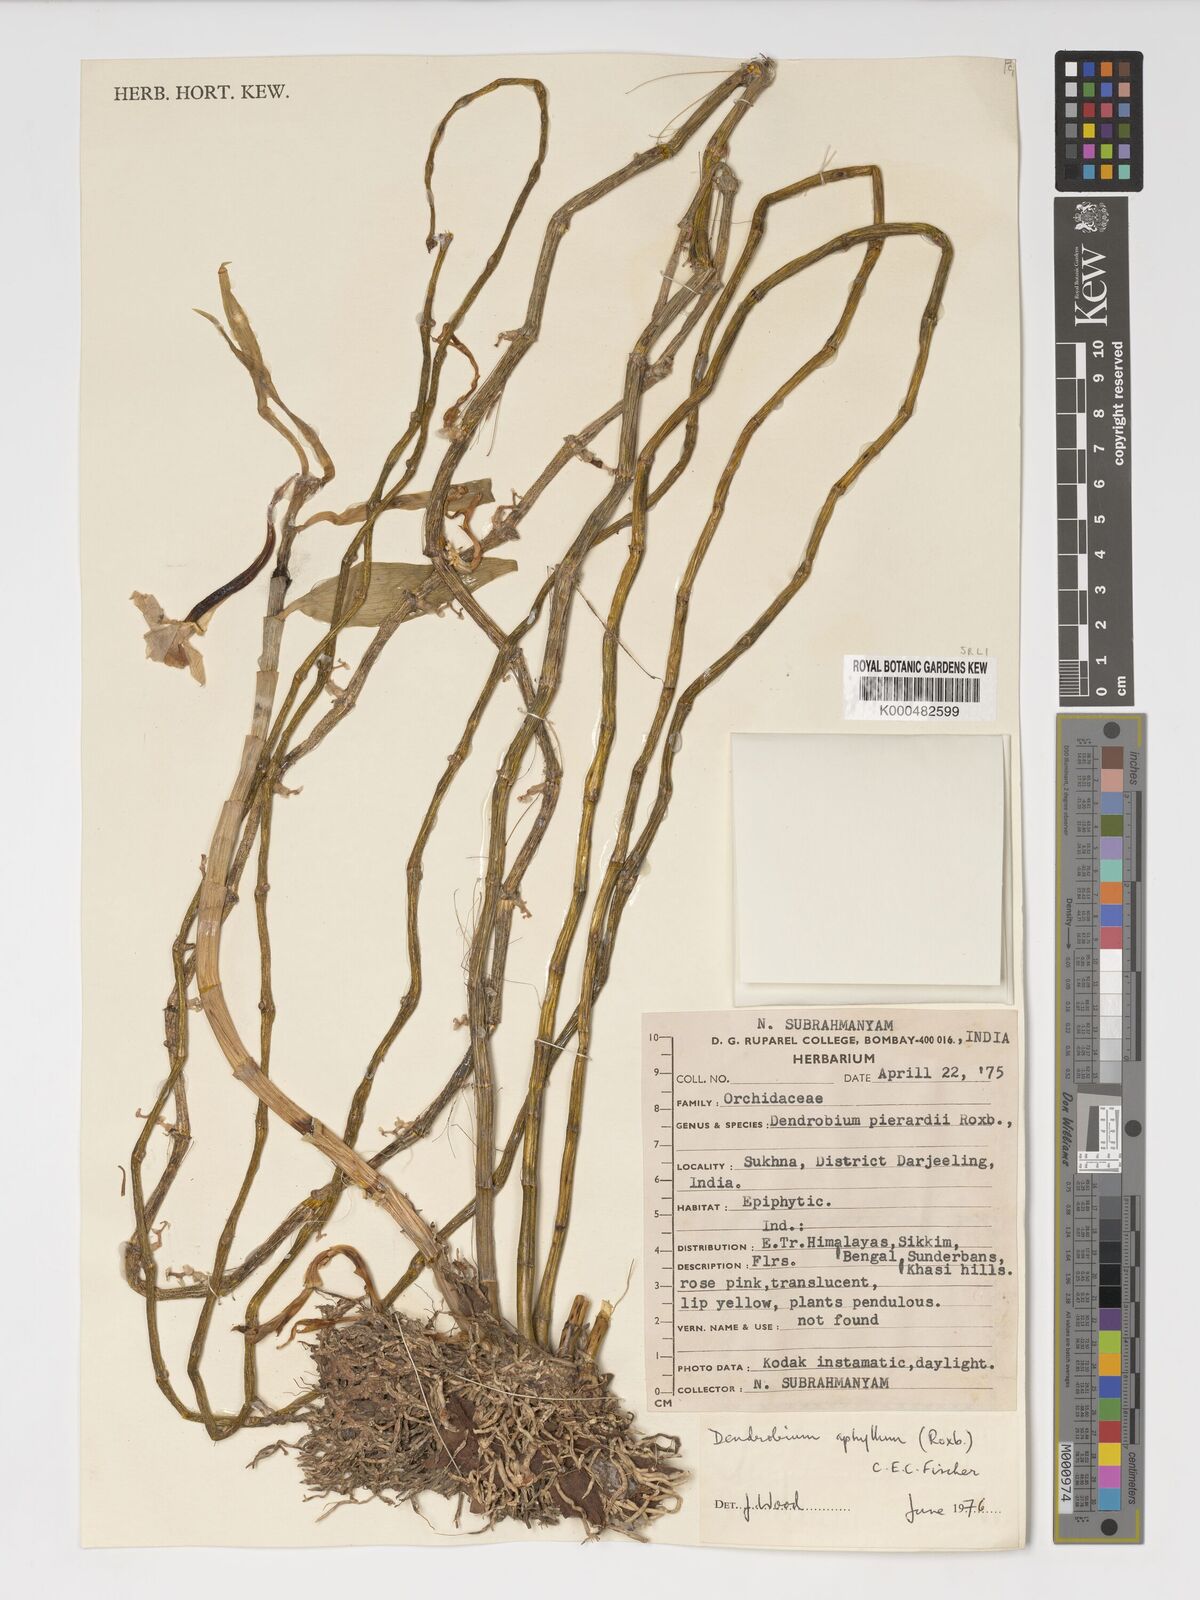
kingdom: Plantae
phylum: Tracheophyta
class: Liliopsida
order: Asparagales
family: Orchidaceae
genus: Dendrobium
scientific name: Dendrobium macrostachyum
